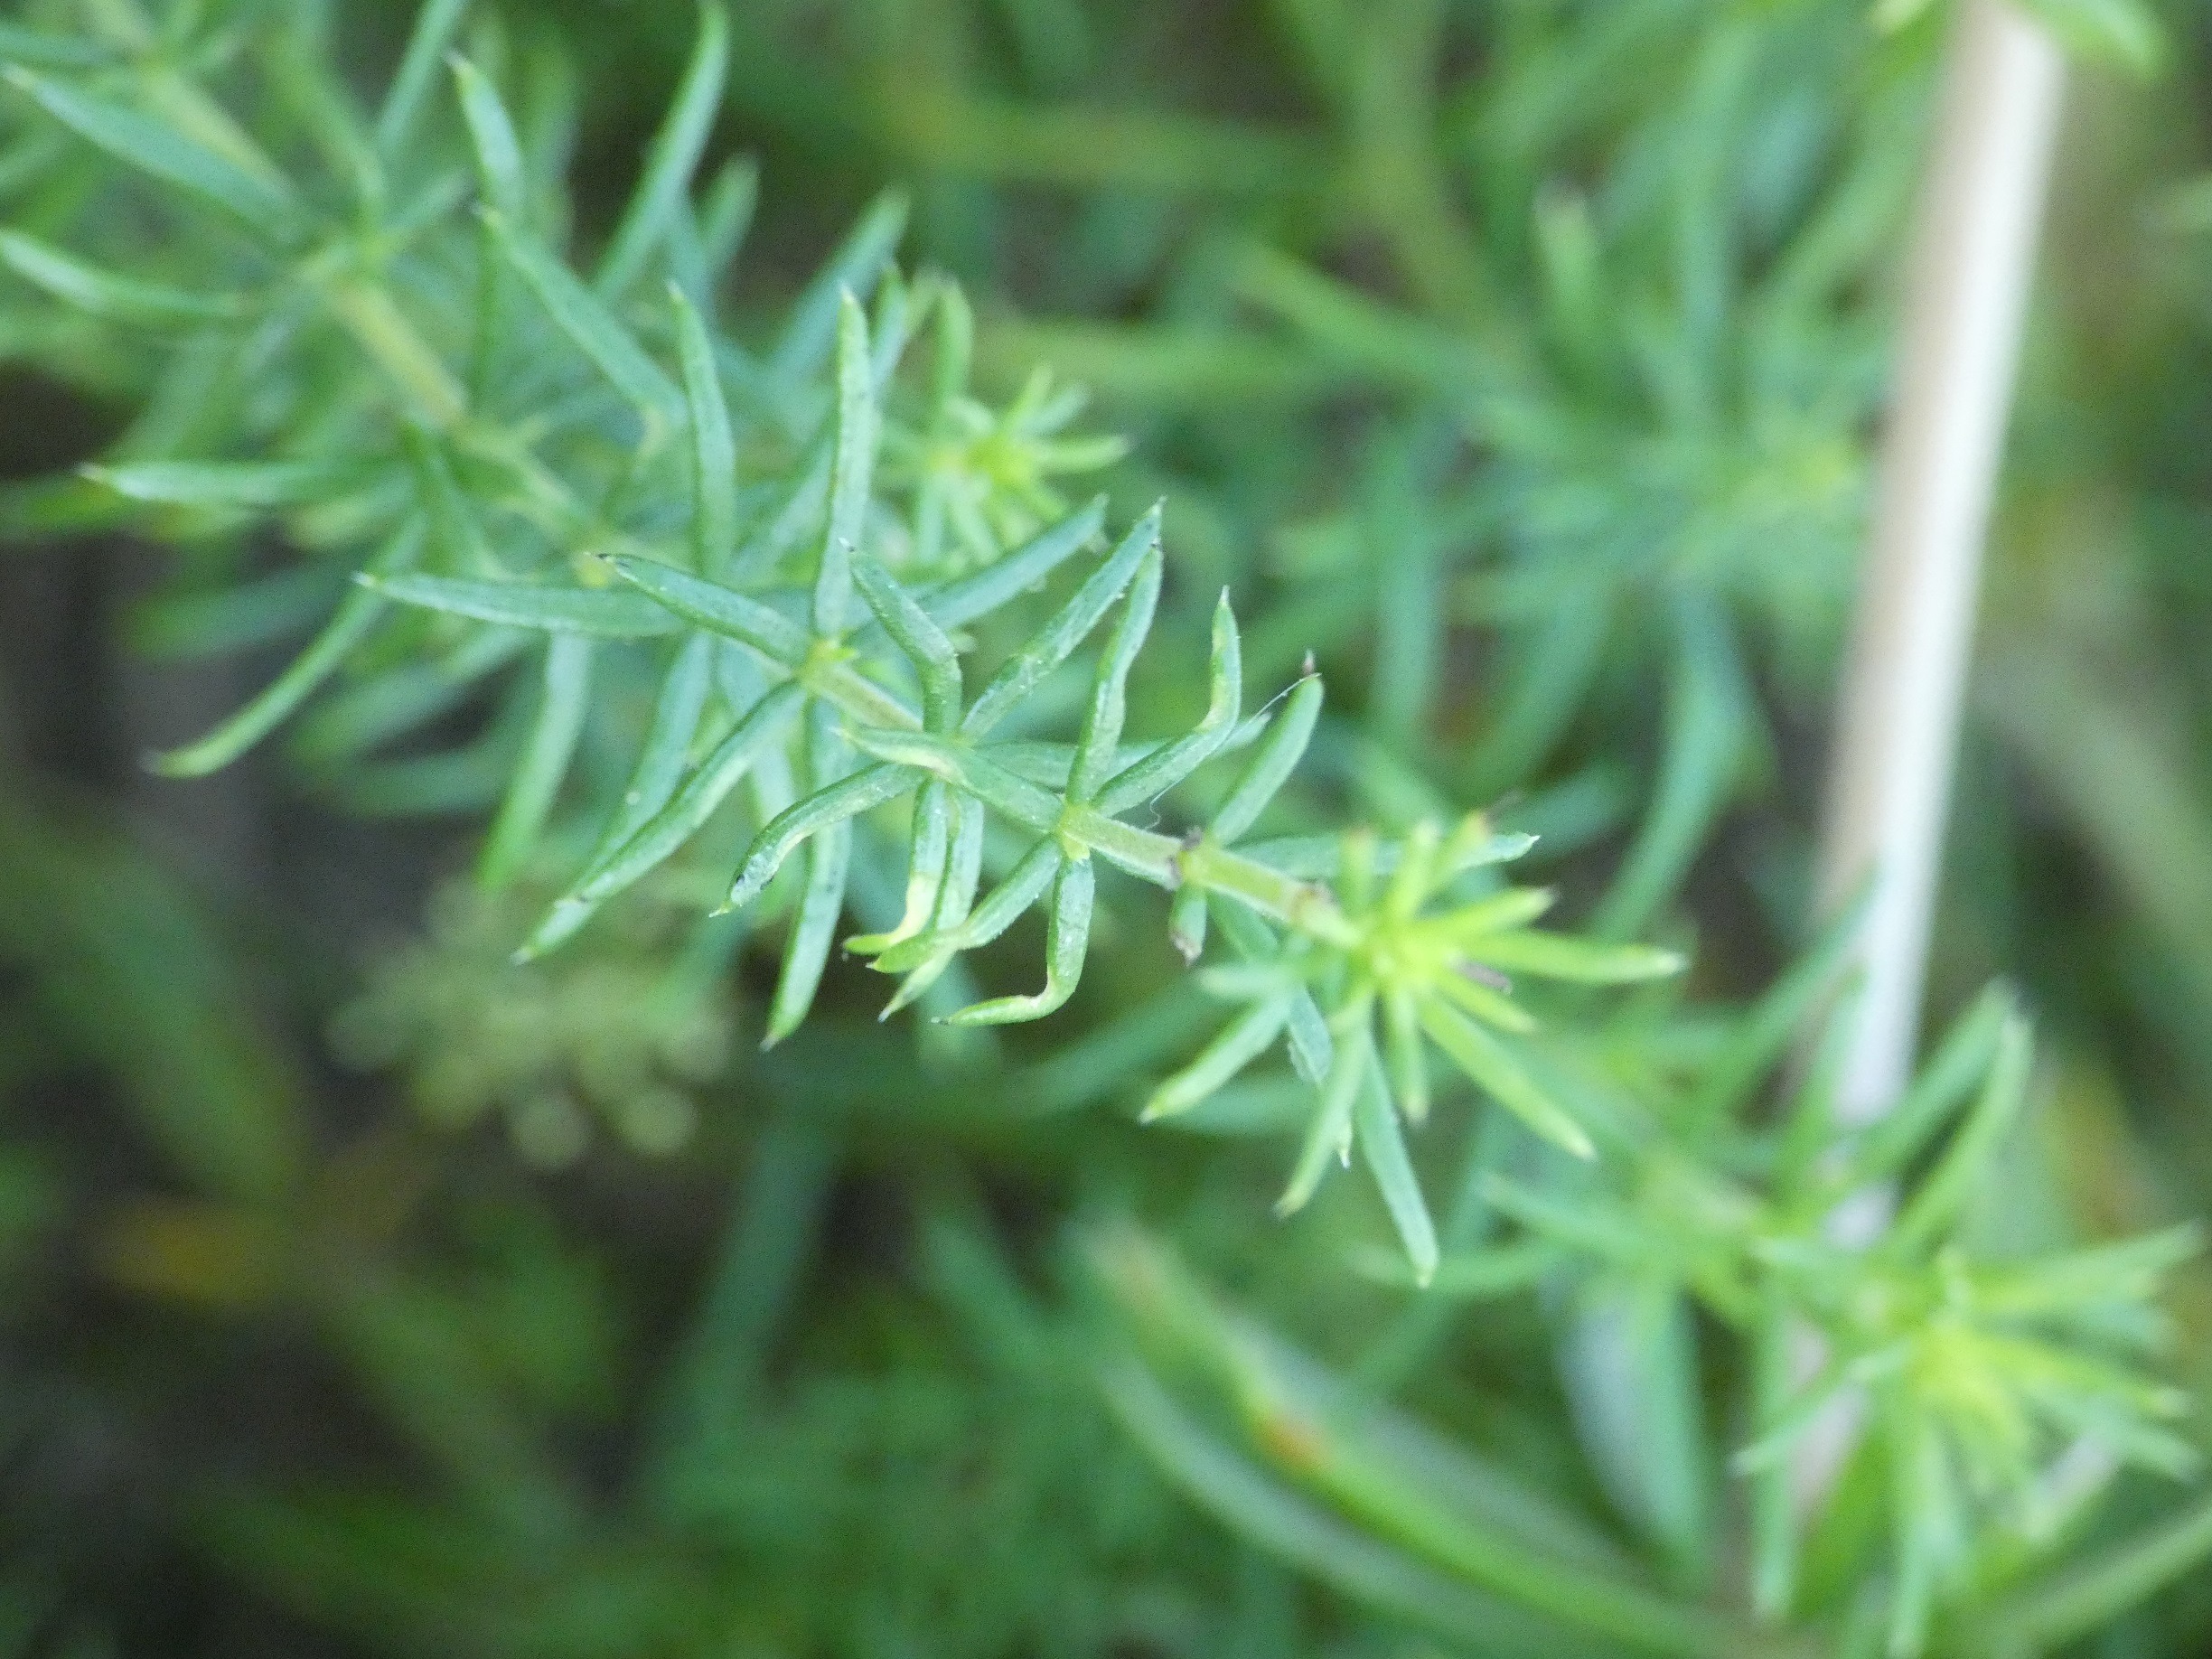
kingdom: Plantae
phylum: Tracheophyta
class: Magnoliopsida
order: Gentianales
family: Rubiaceae
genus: Galium
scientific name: Galium verum
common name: Gul snerre
